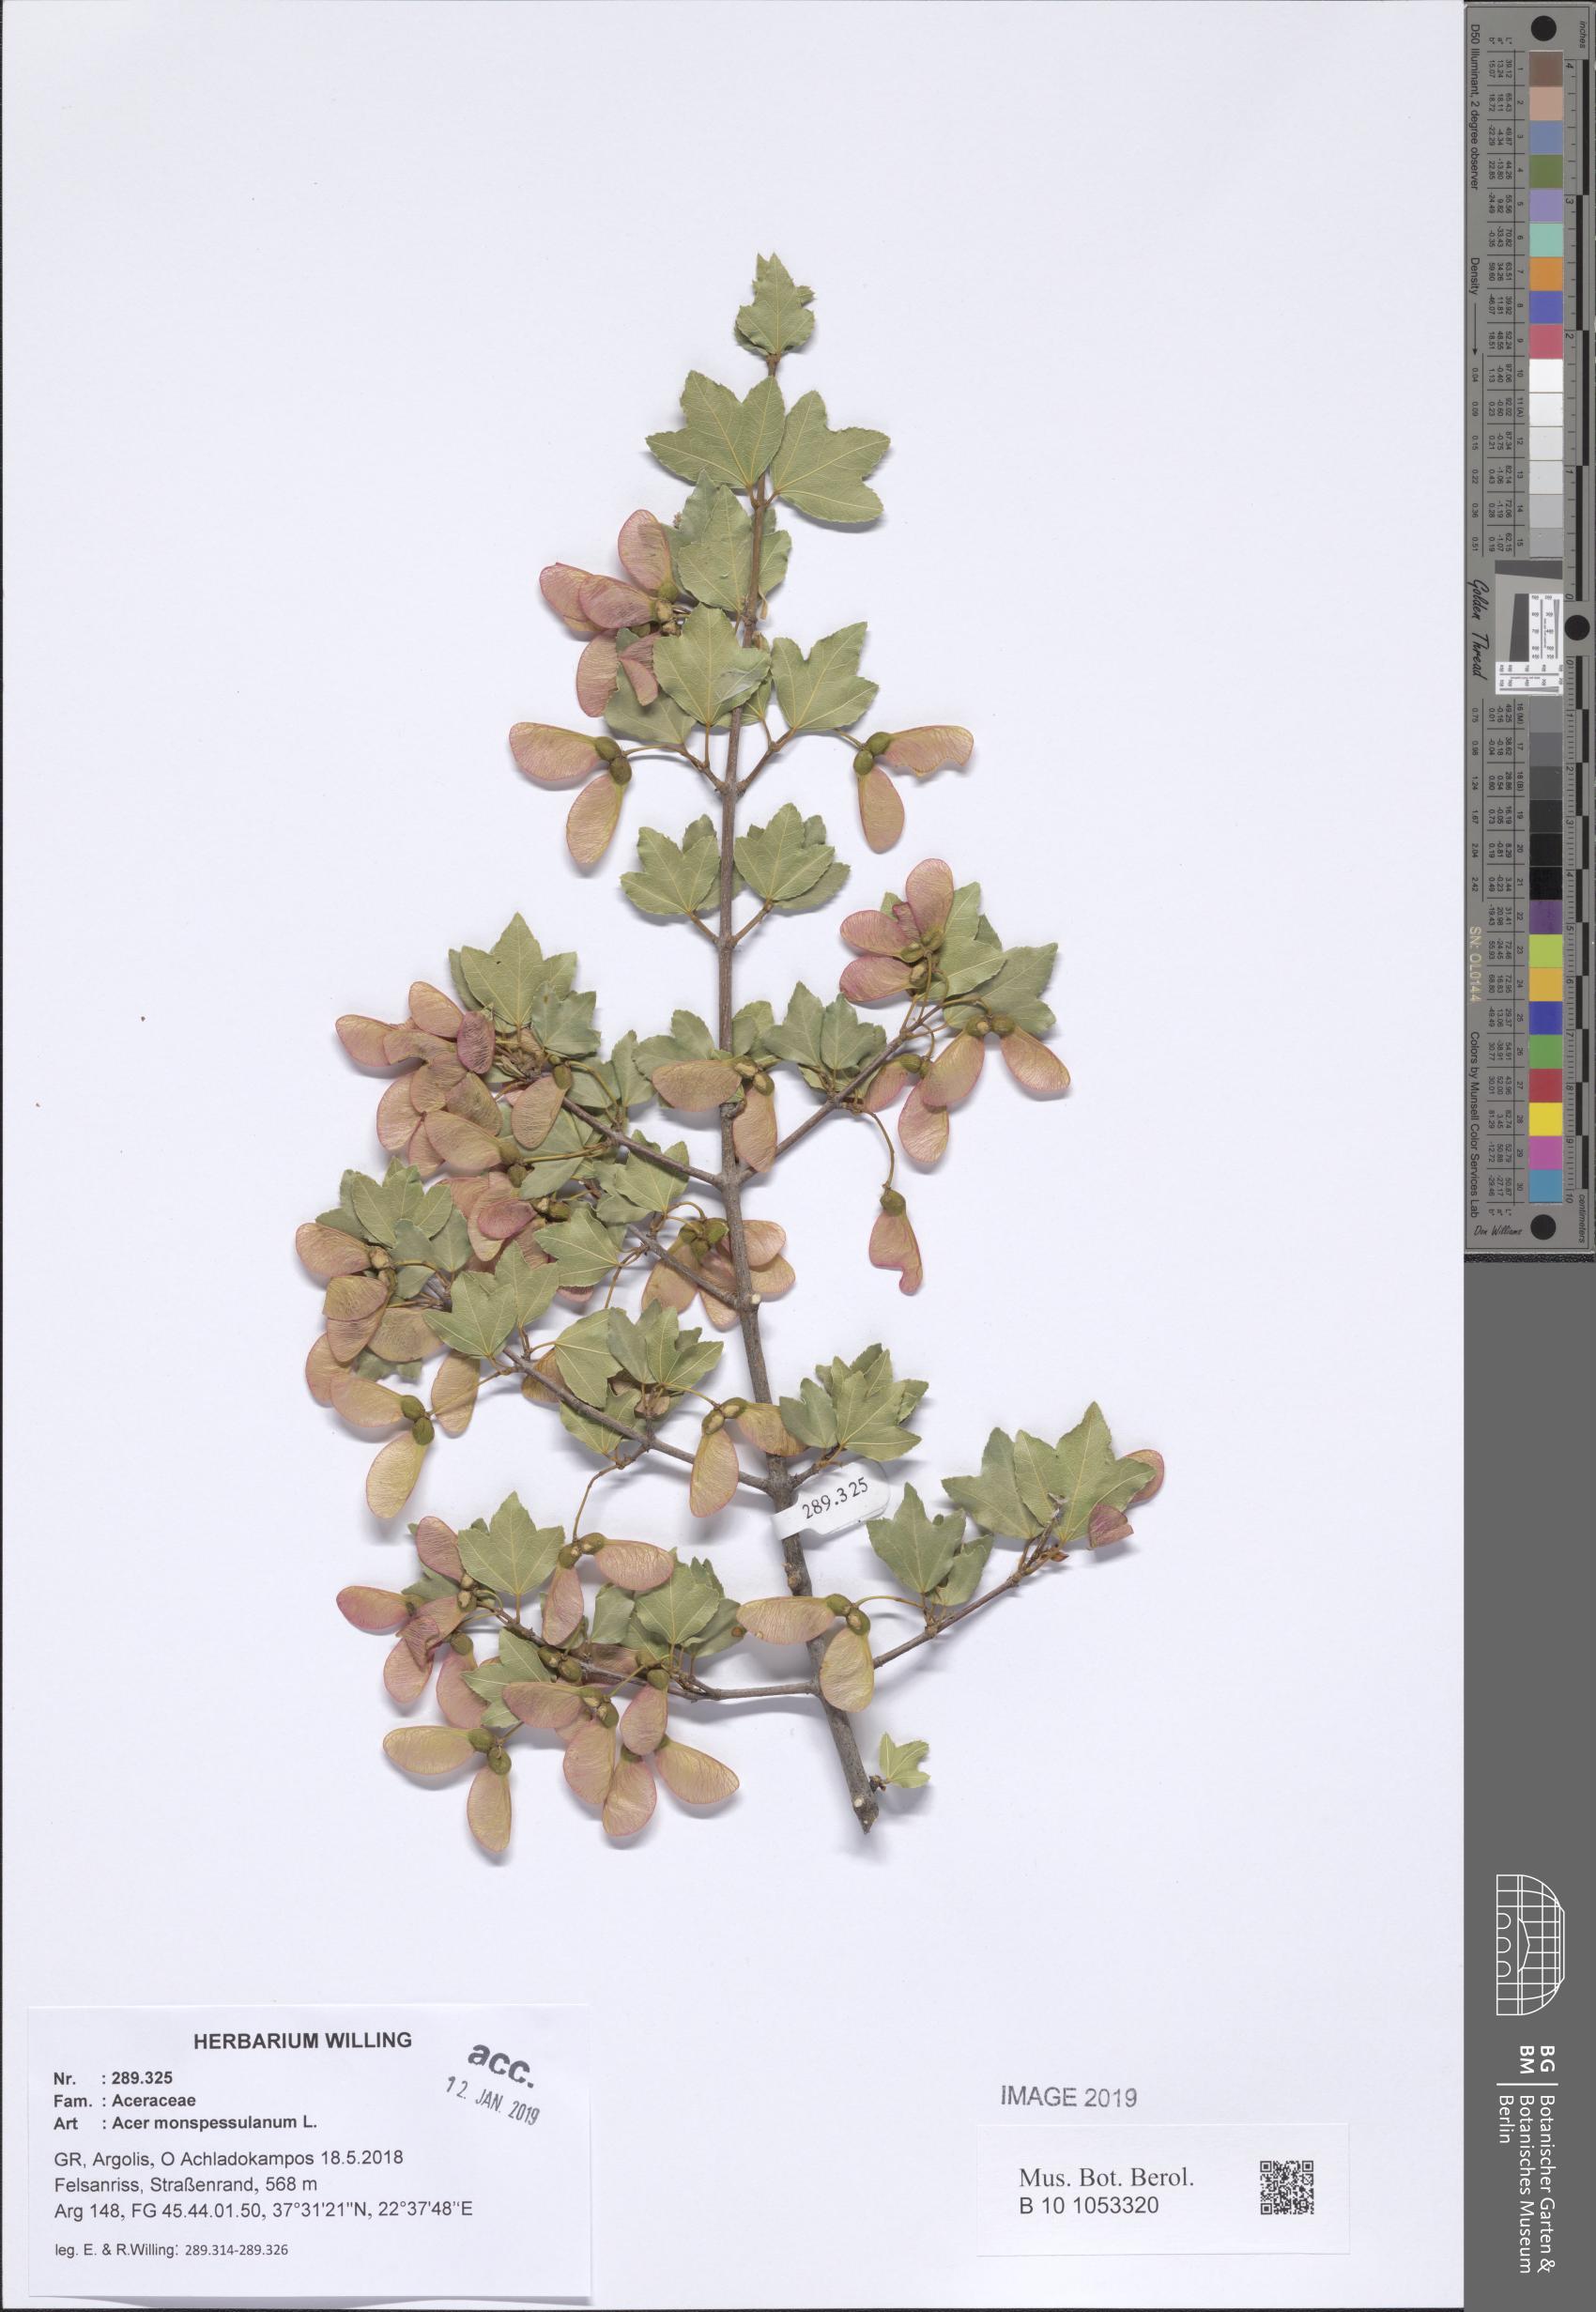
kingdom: Plantae
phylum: Tracheophyta
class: Magnoliopsida
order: Sapindales
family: Sapindaceae
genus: Acer
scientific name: Acer monspessulanum
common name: Montpellier maple
